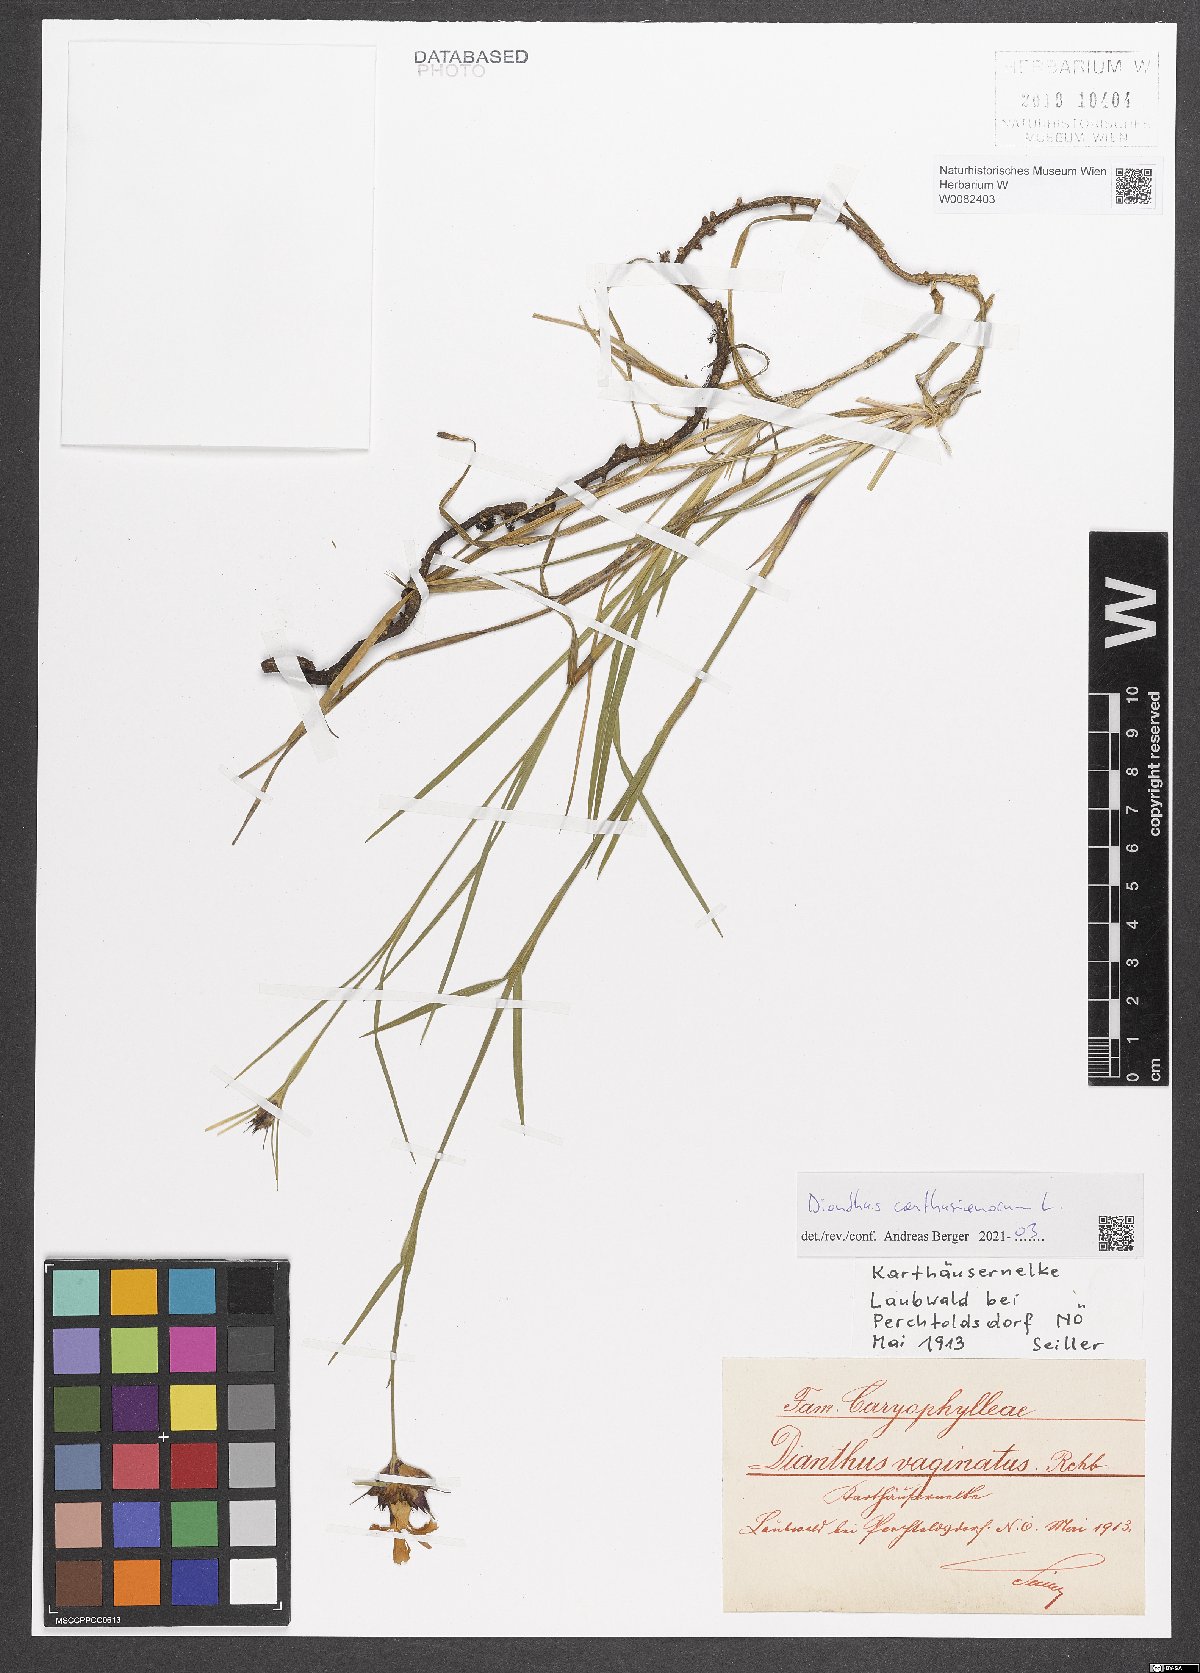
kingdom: Plantae
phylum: Tracheophyta
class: Magnoliopsida
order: Caryophyllales
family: Caryophyllaceae
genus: Dianthus
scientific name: Dianthus carthusianorum
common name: Carthusian pink
